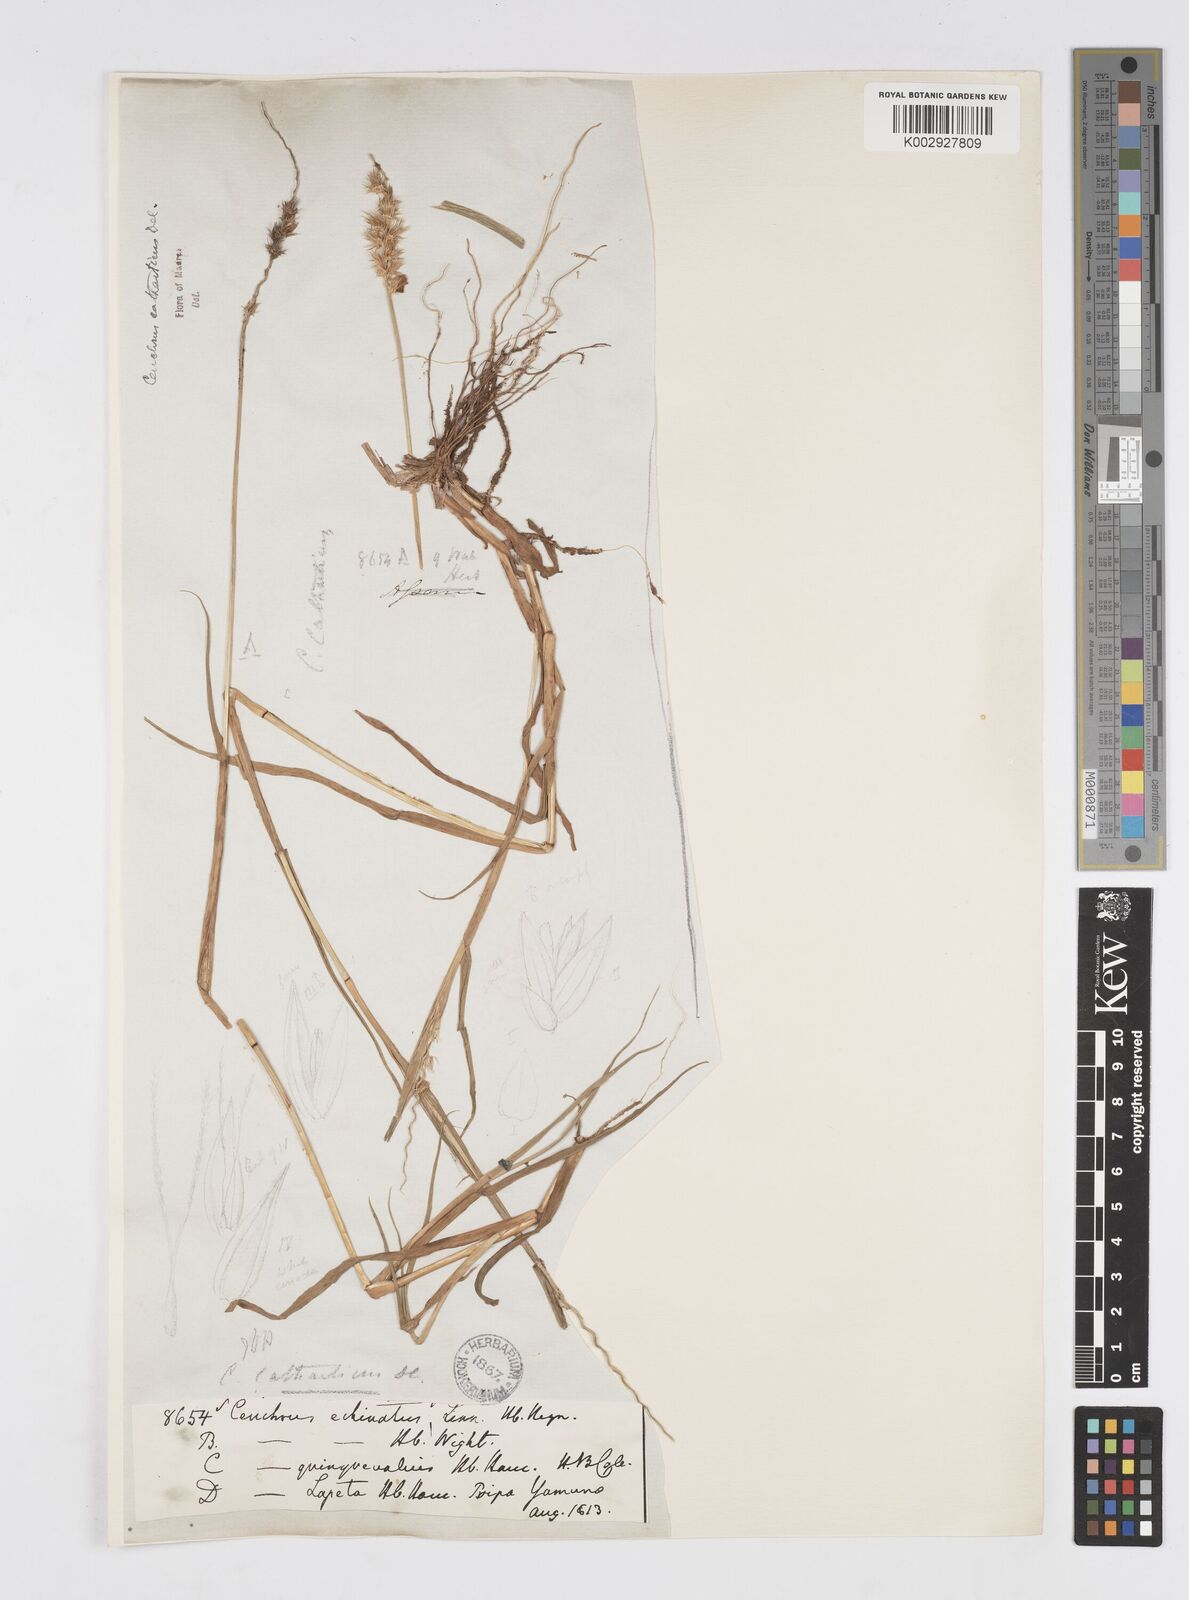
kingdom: Plantae
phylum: Tracheophyta
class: Liliopsida
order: Poales
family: Poaceae
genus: Cenchrus
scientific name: Cenchrus biflorus
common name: Indian sandbur
